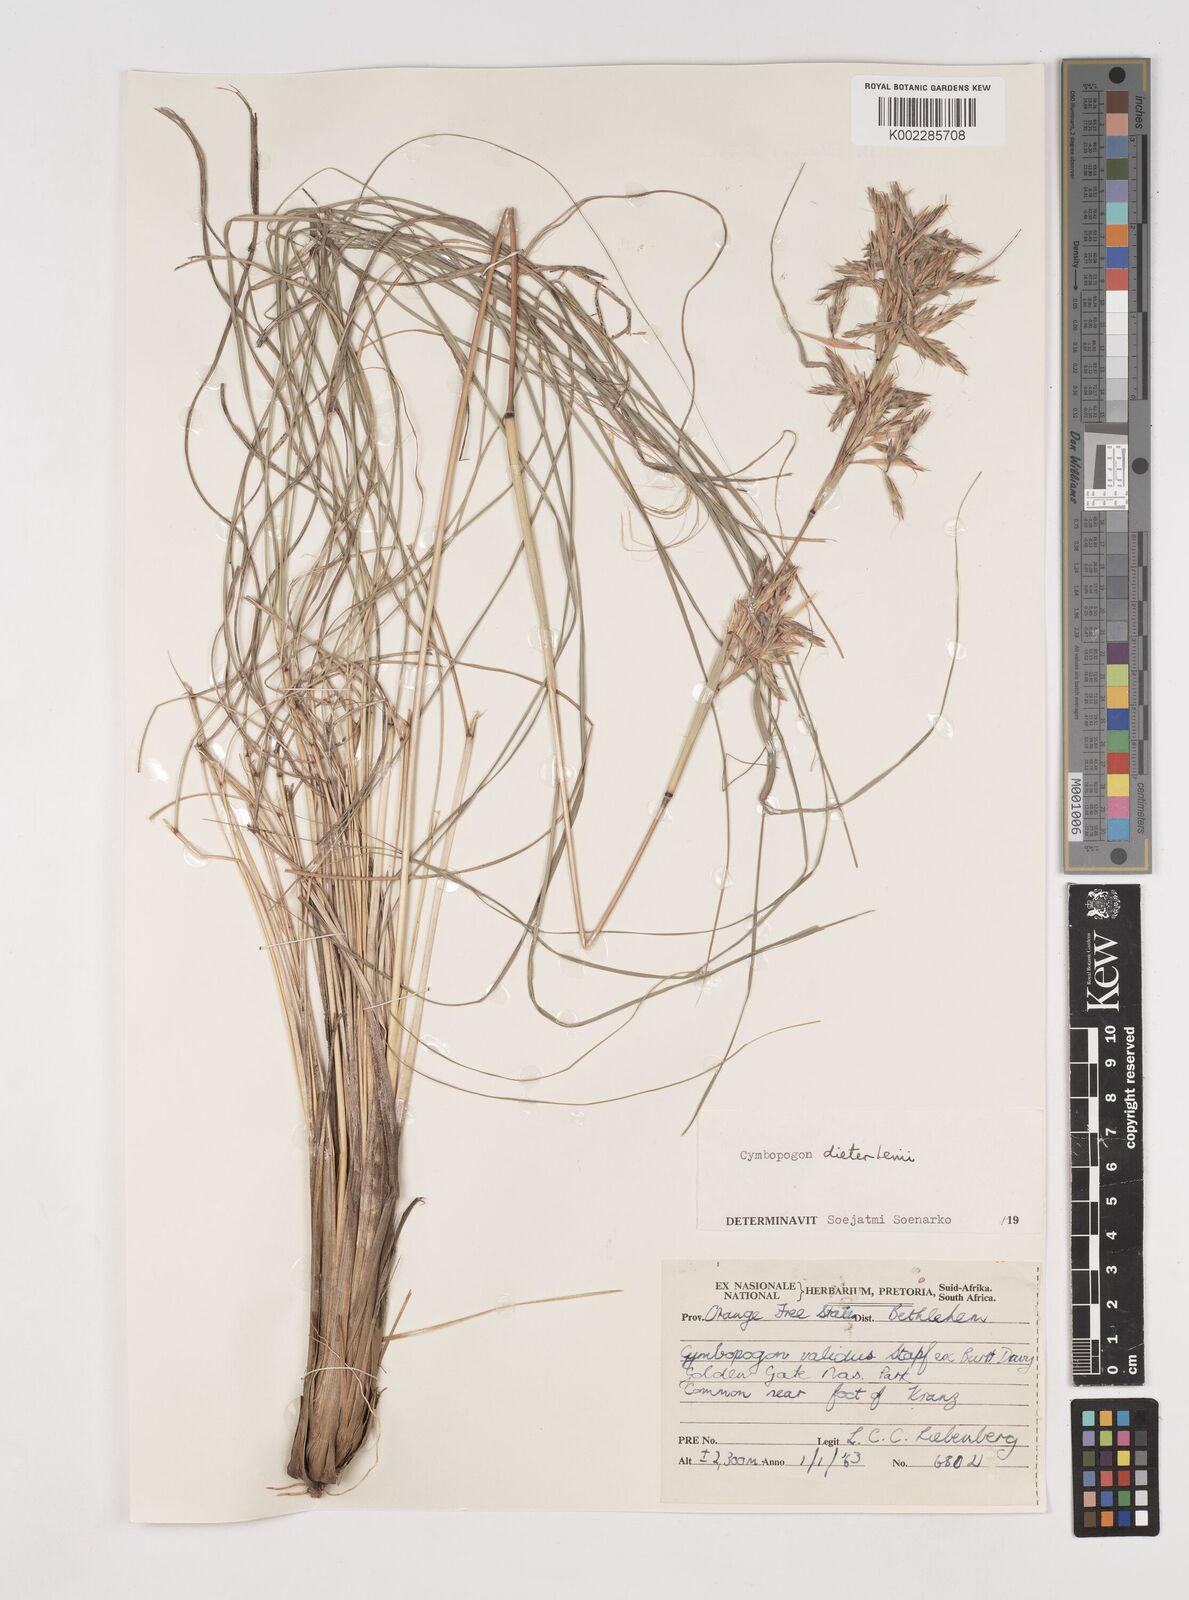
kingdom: Plantae
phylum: Tracheophyta
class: Liliopsida
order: Poales
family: Poaceae
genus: Cymbopogon
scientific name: Cymbopogon dieterlenii
